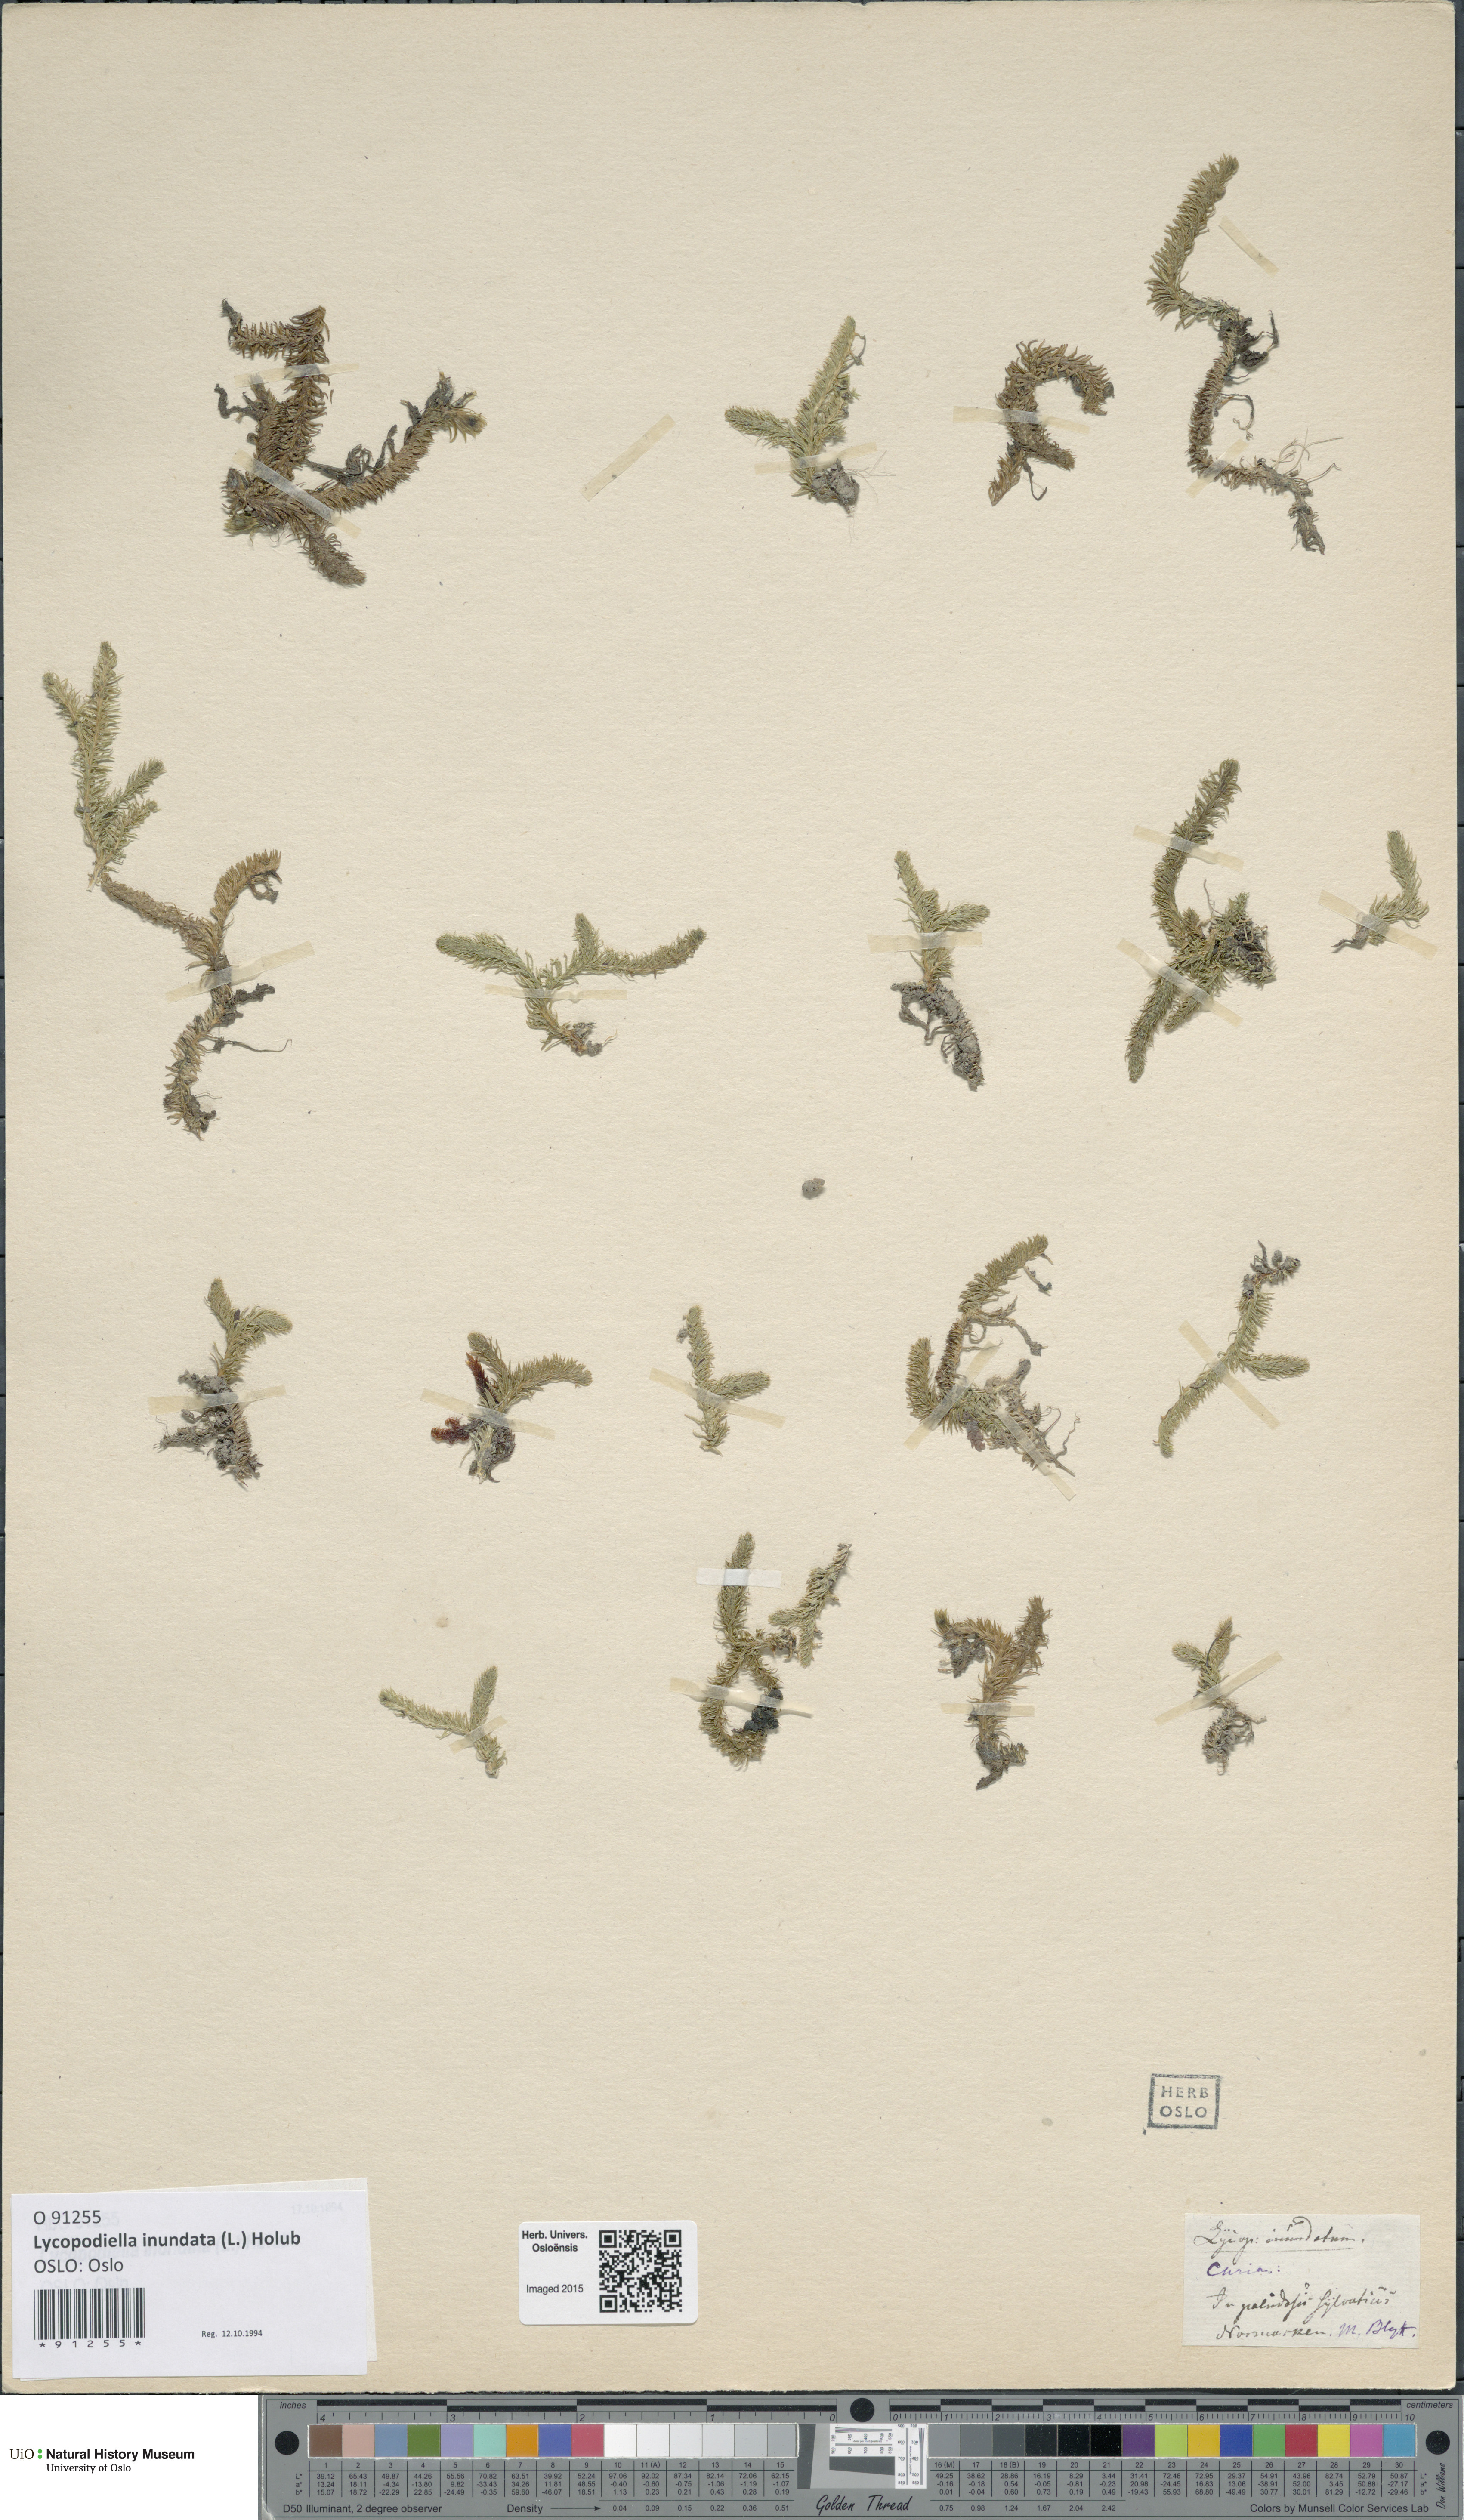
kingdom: Plantae
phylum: Tracheophyta
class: Lycopodiopsida
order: Lycopodiales
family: Lycopodiaceae
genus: Lycopodiella
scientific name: Lycopodiella inundata
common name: Marsh clubmoss
